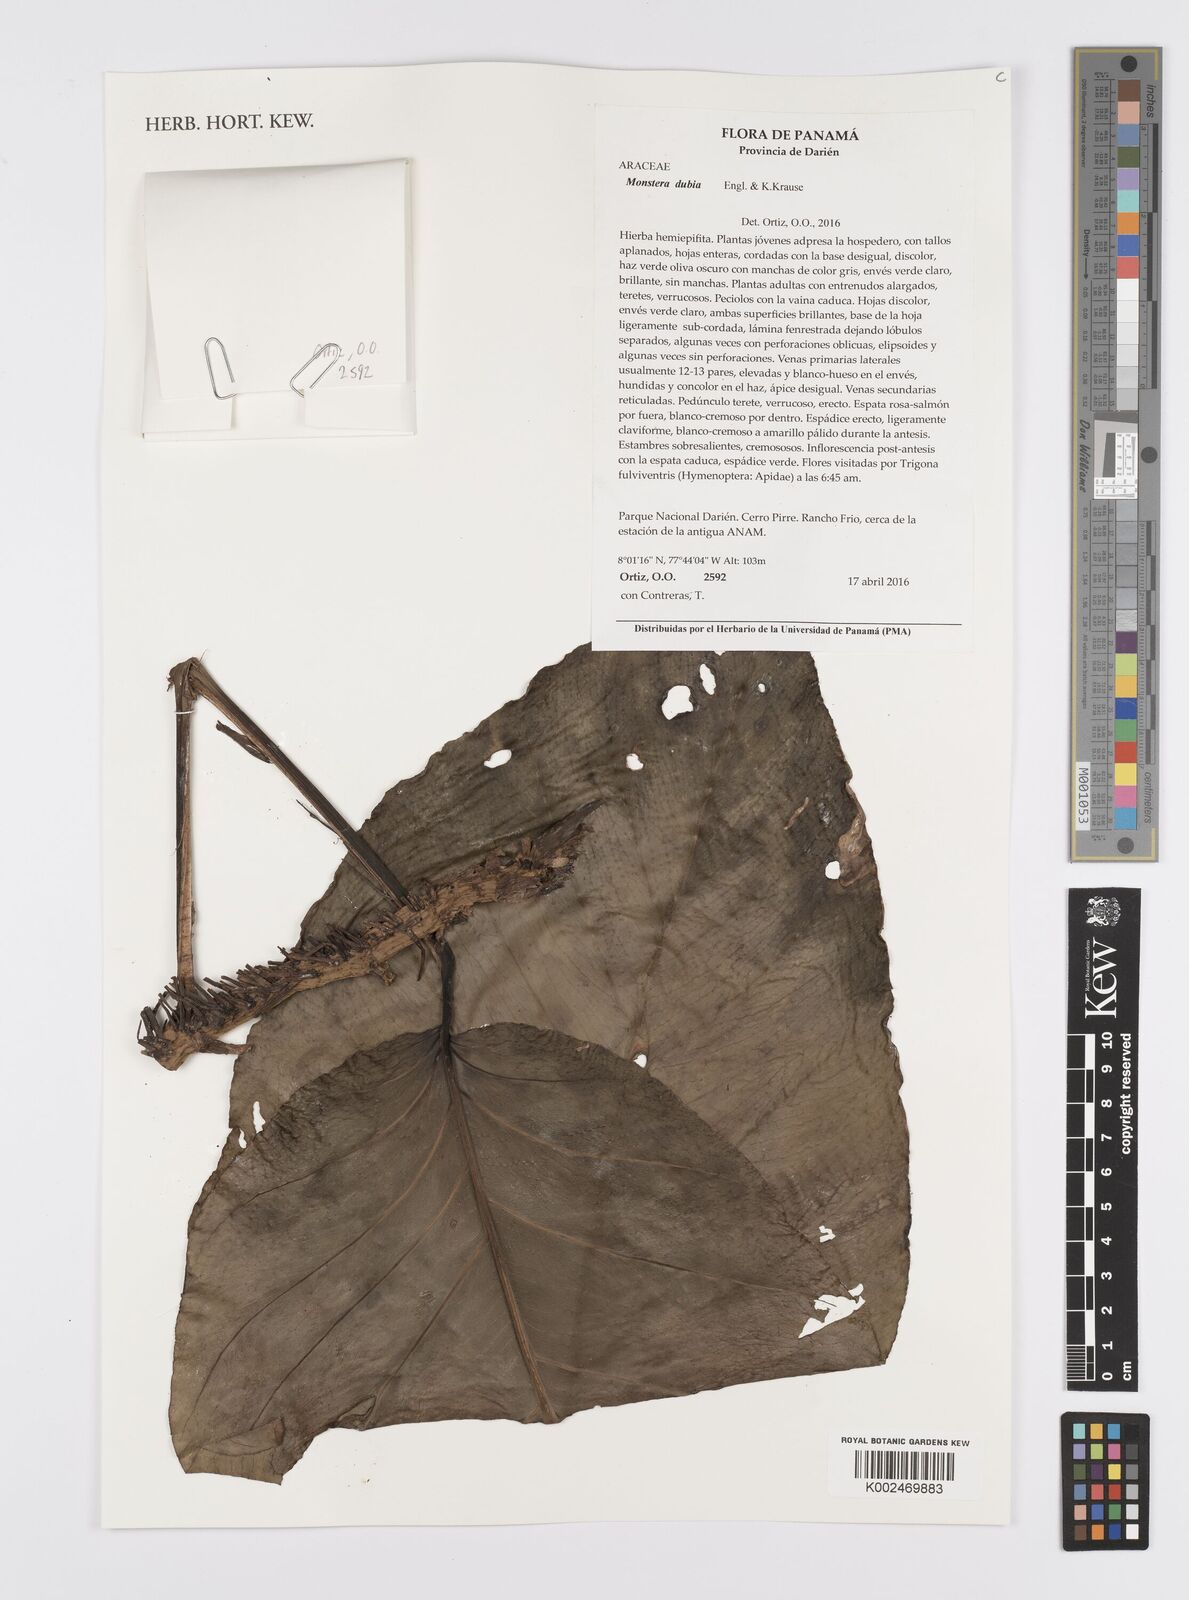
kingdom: Plantae
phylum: Tracheophyta
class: Liliopsida
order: Alismatales
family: Araceae
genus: Monstera
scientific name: Monstera dubia
